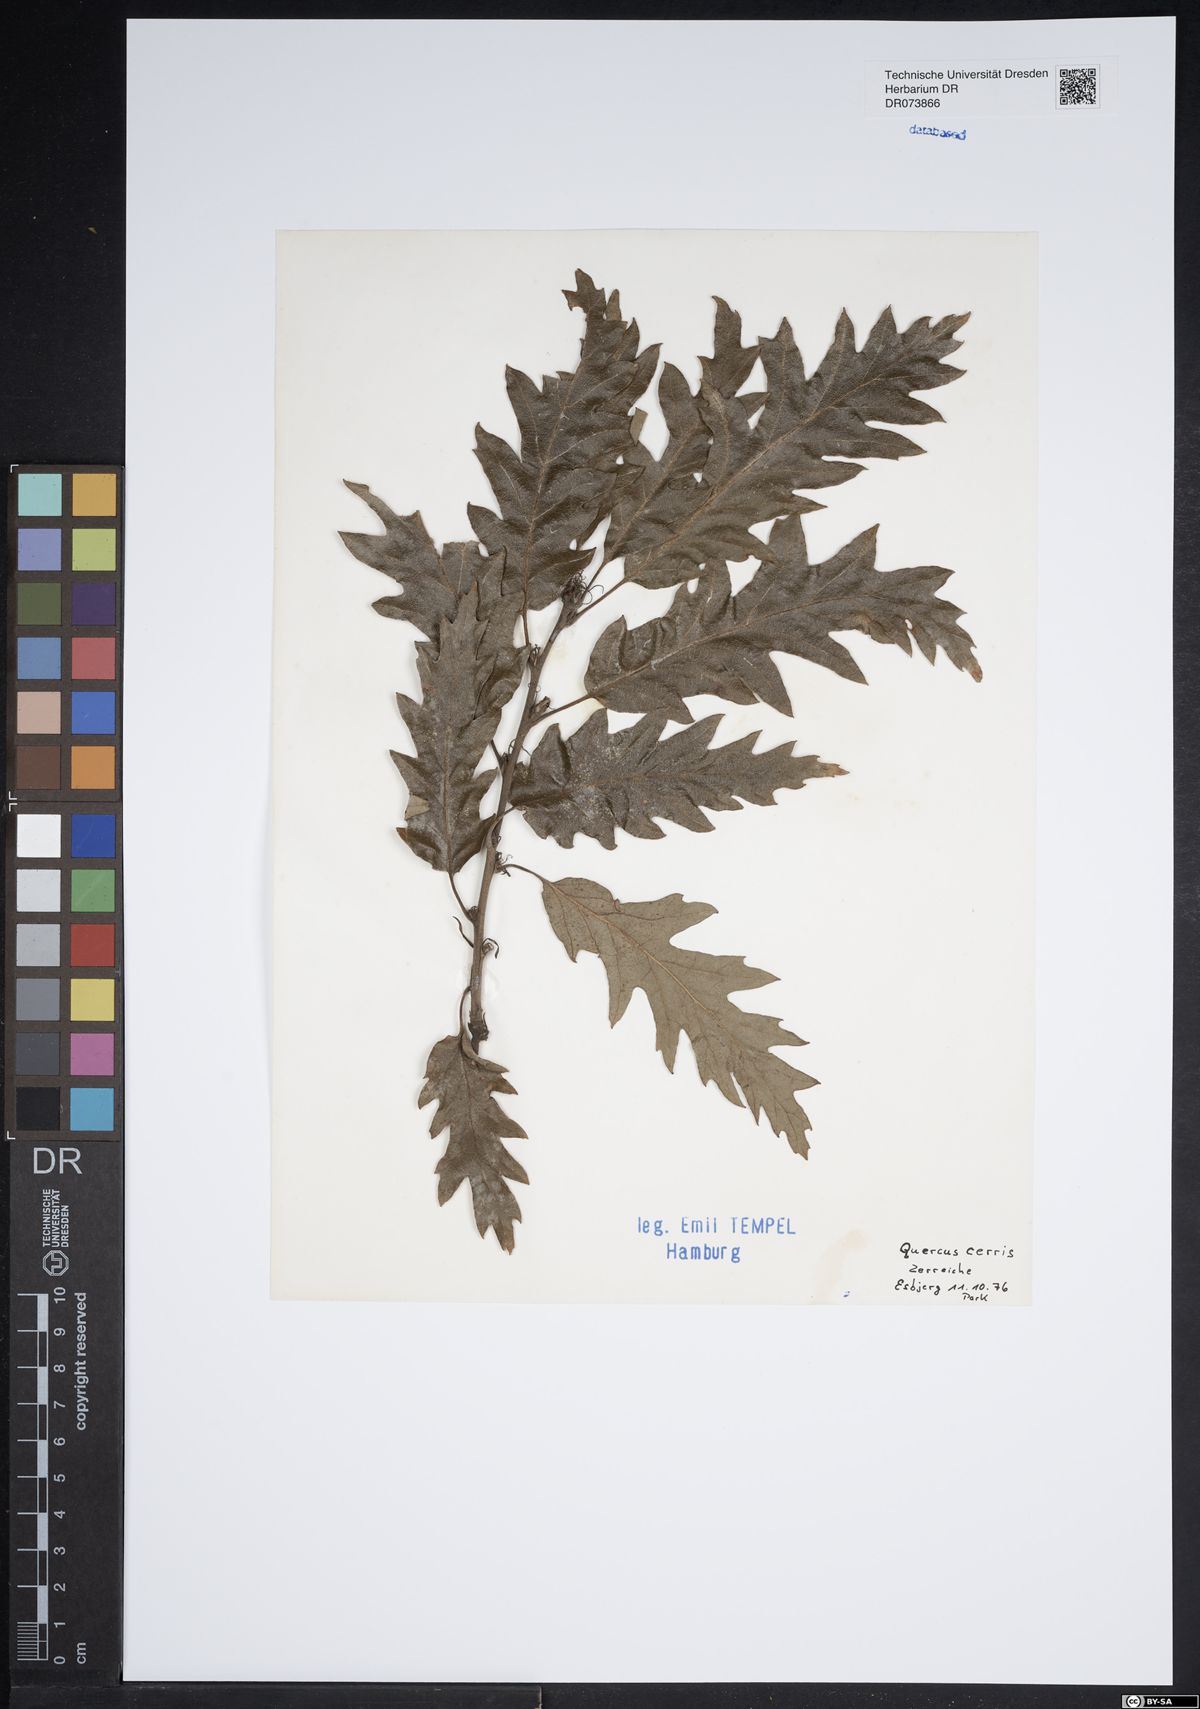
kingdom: Plantae
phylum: Tracheophyta
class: Magnoliopsida
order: Fagales
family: Fagaceae
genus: Quercus
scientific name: Quercus cerris
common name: Turkey oak
